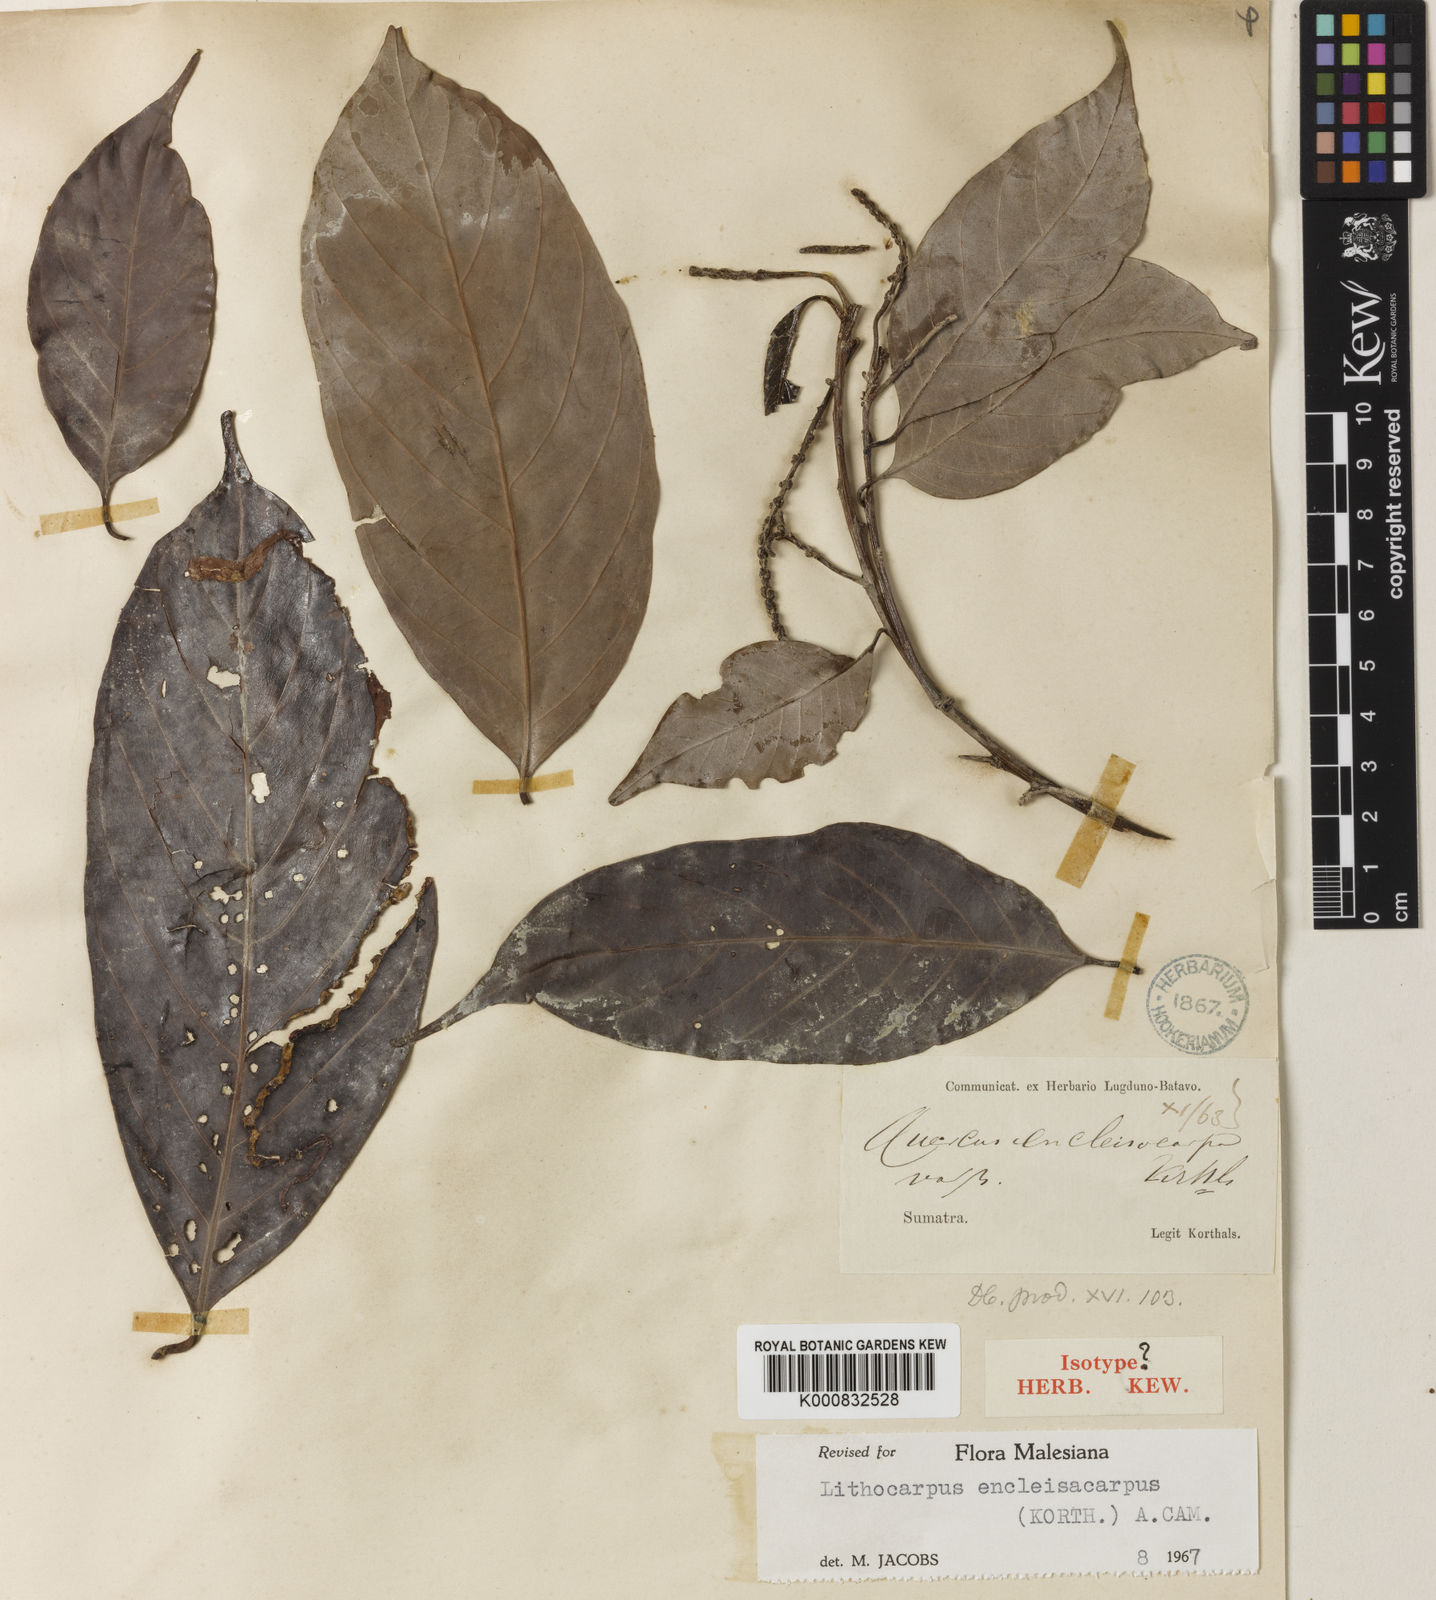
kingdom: Plantae
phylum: Tracheophyta
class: Magnoliopsida
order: Fagales
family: Fagaceae
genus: Lithocarpus
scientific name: Lithocarpus encleisacarpus
